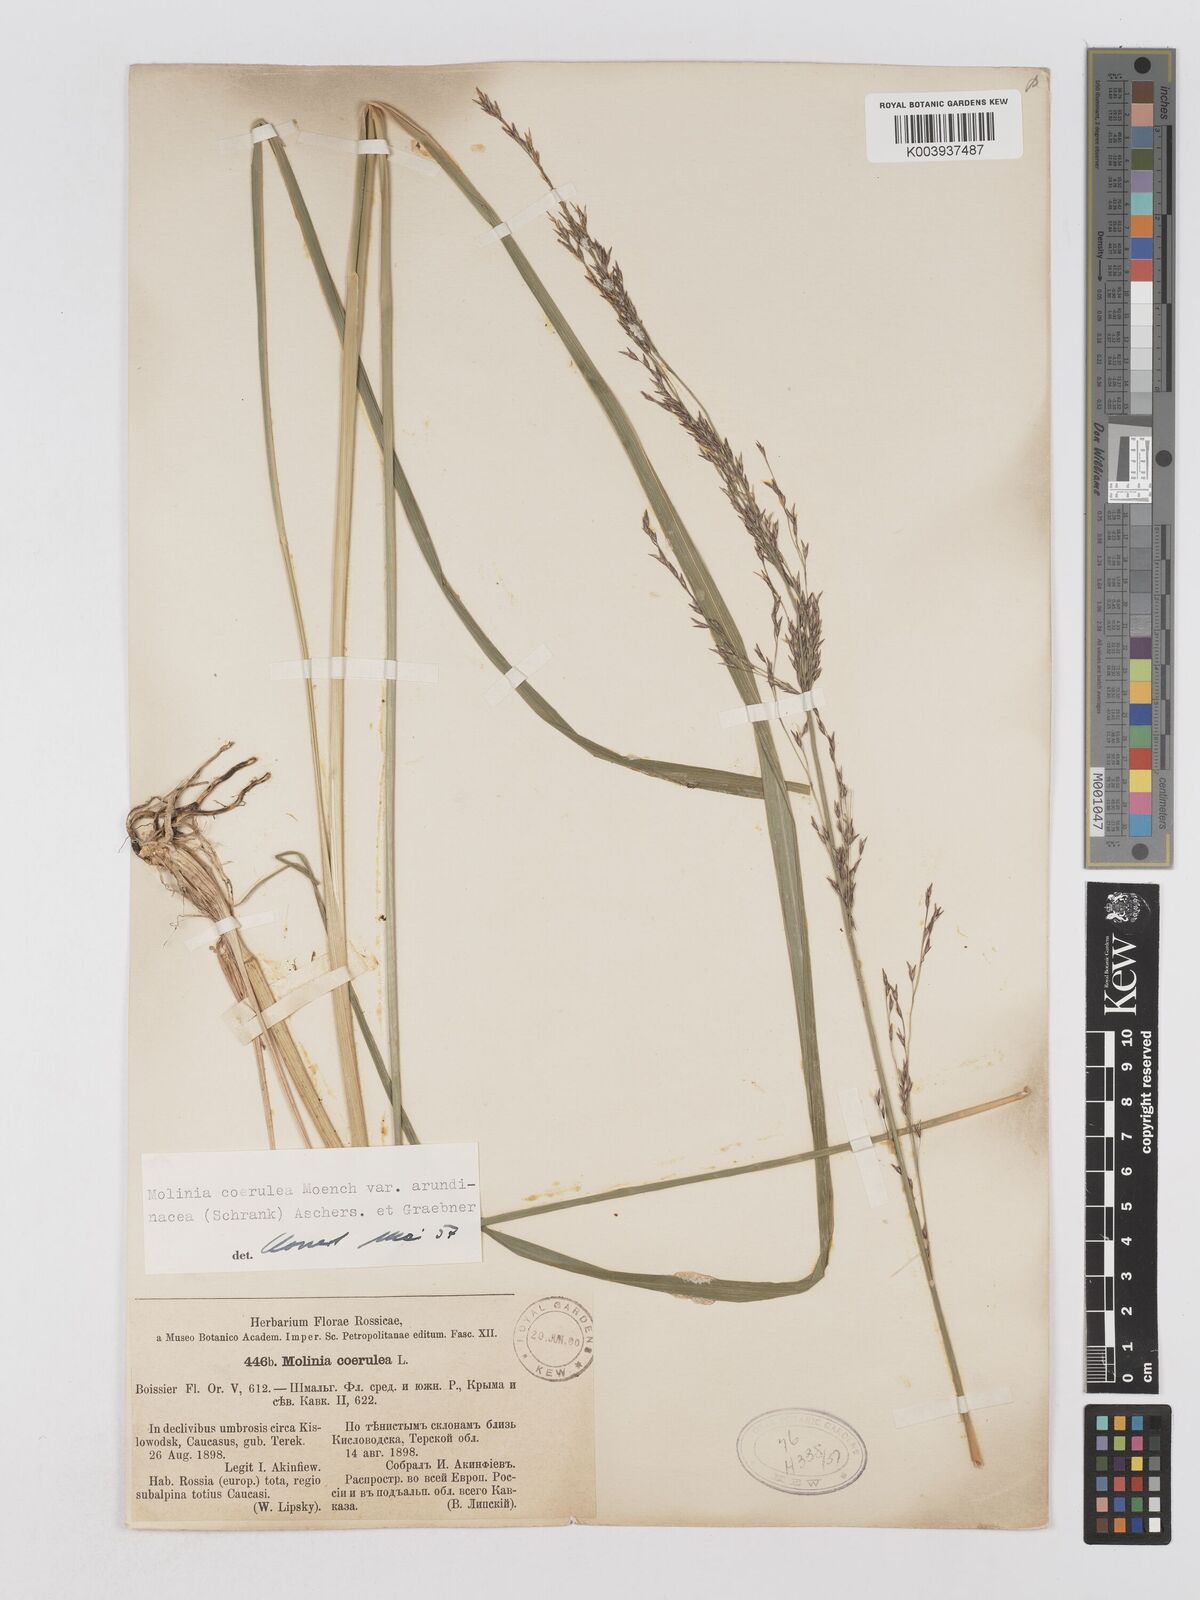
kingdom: Plantae
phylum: Tracheophyta
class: Liliopsida
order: Poales
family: Poaceae
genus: Molinia
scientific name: Molinia caerulea
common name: Purple moor-grass
